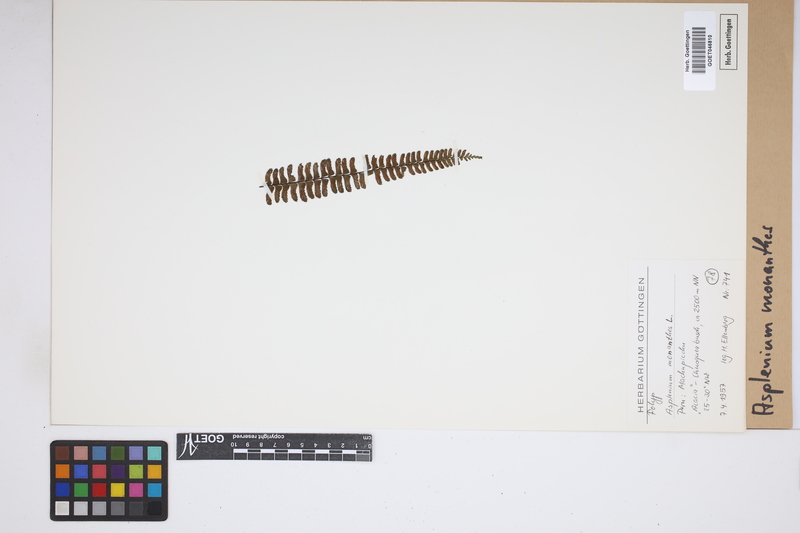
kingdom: Plantae
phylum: Tracheophyta
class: Polypodiopsida
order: Polypodiales
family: Aspleniaceae
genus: Asplenium
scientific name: Asplenium monanthes
